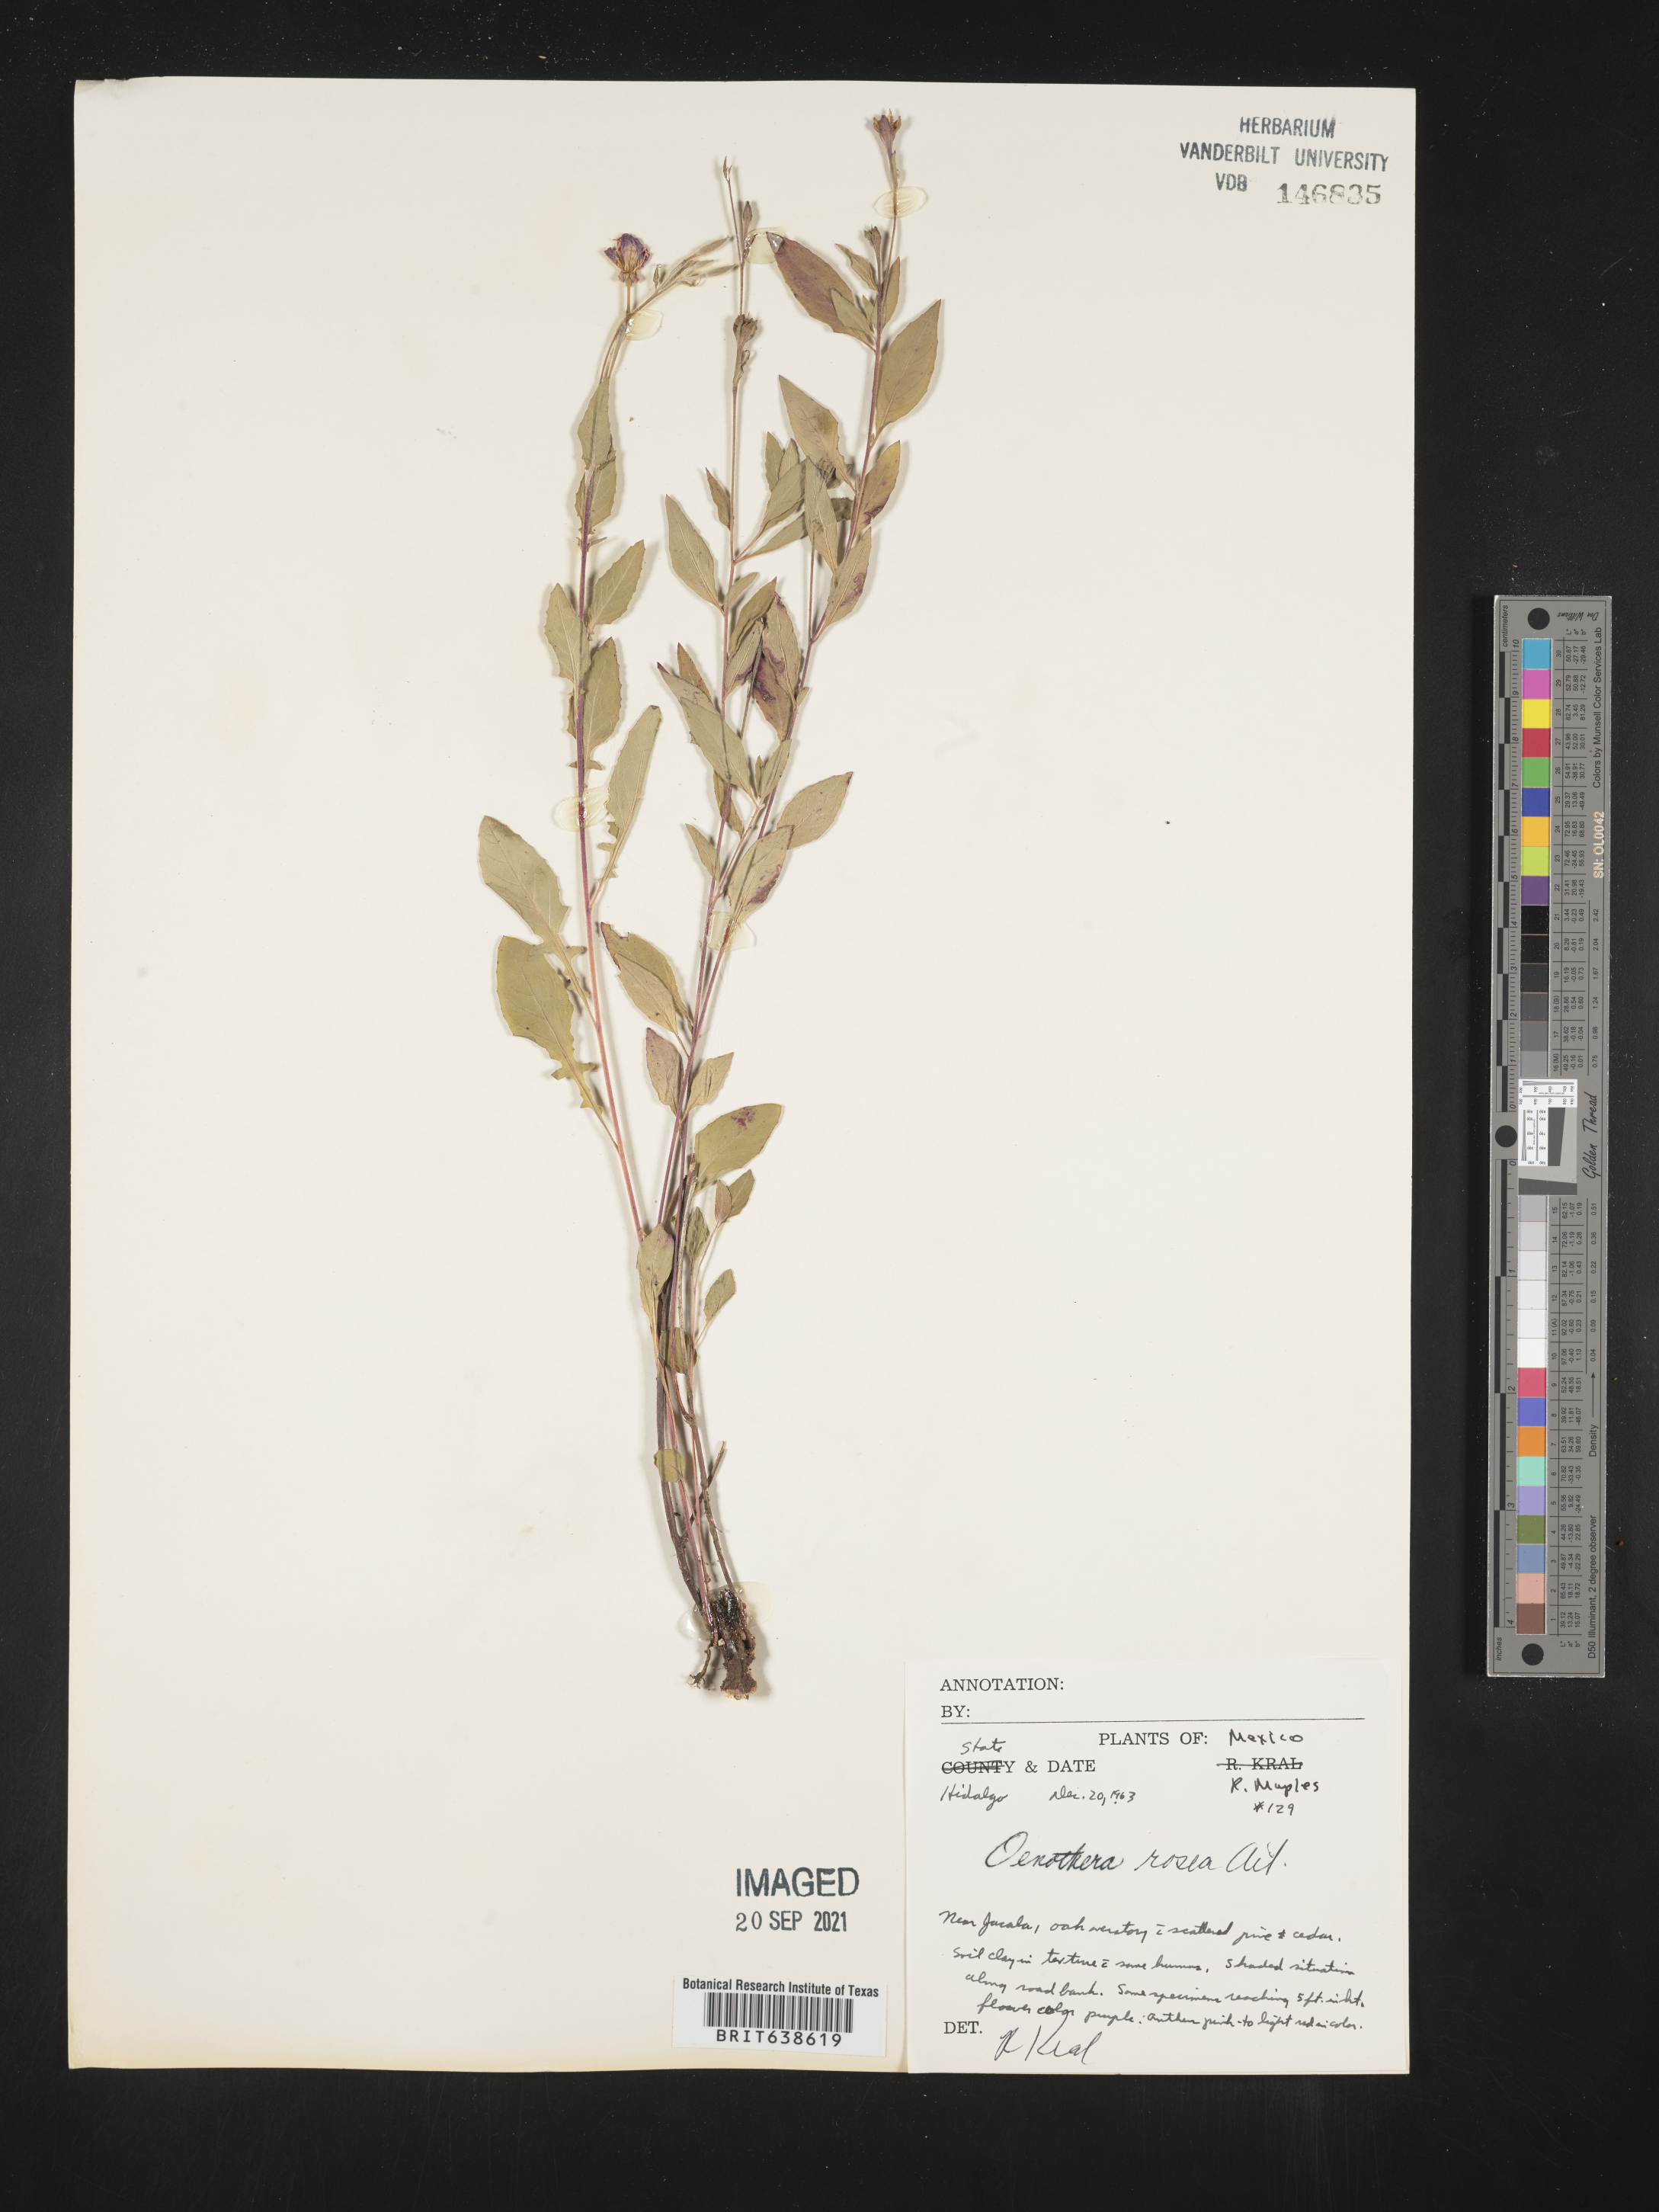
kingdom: Plantae
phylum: Tracheophyta
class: Magnoliopsida
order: Myrtales
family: Onagraceae
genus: Oenothera
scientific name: Oenothera
